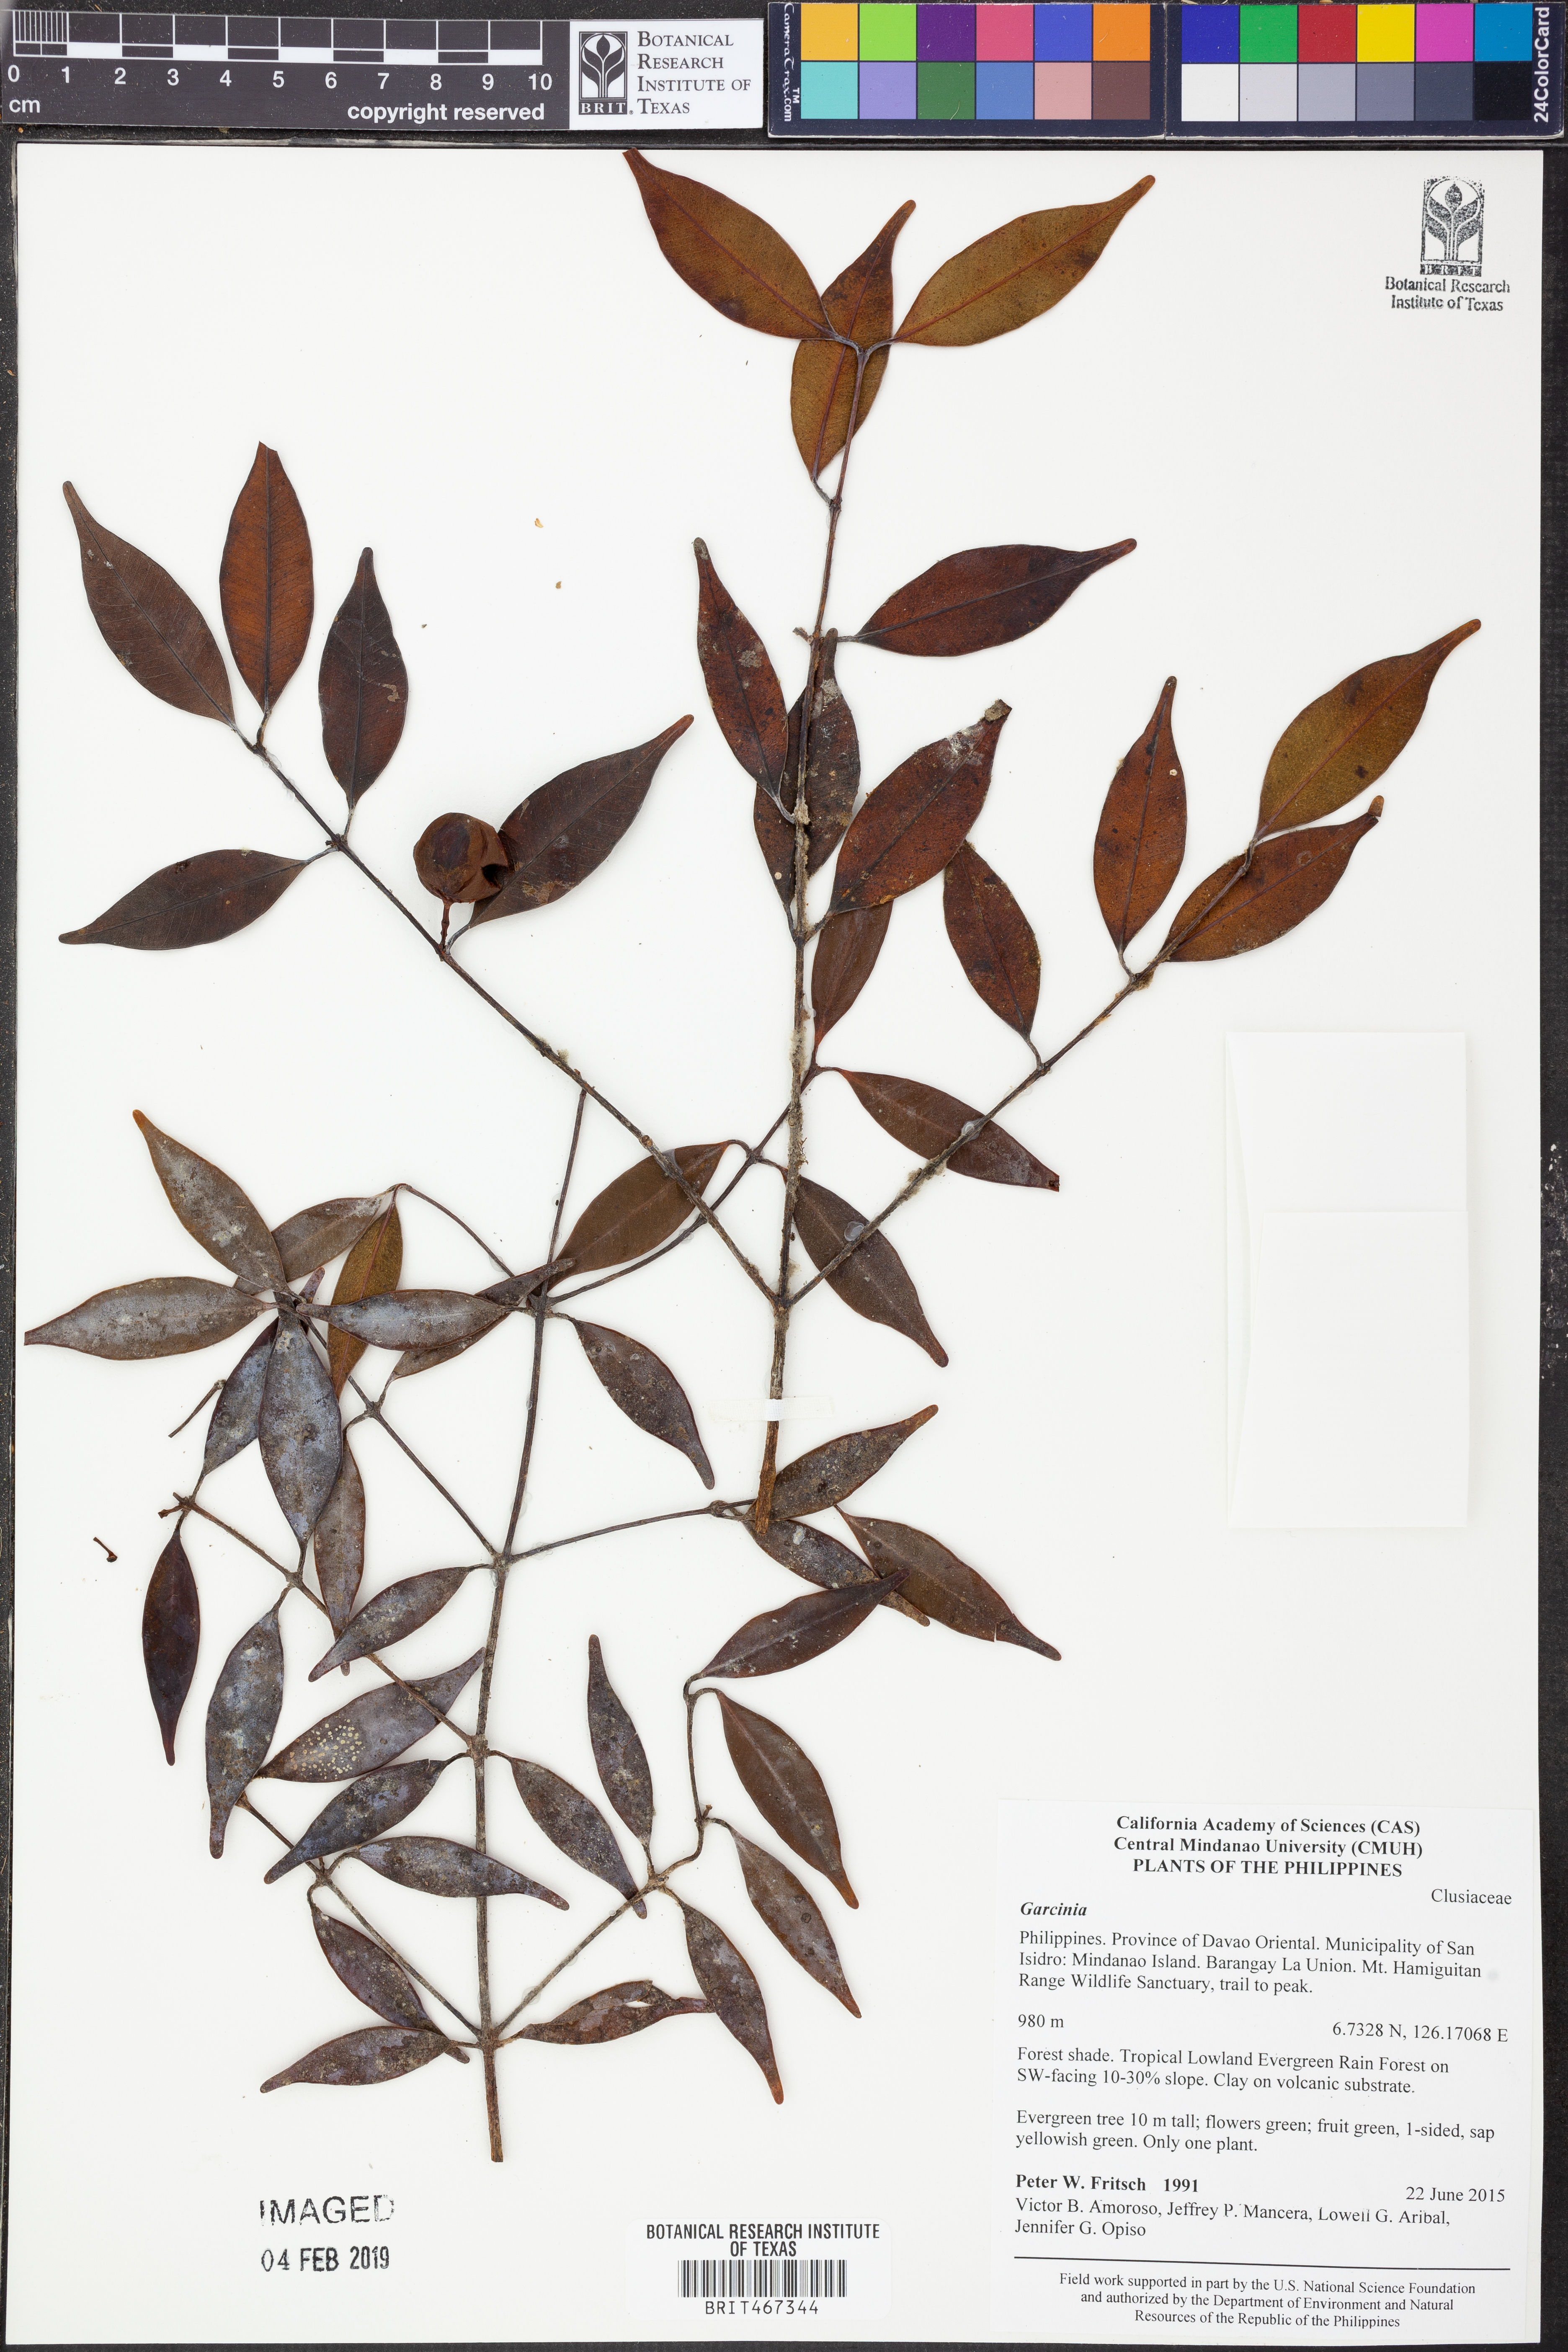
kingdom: Plantae
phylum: Tracheophyta
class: Magnoliopsida
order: Malpighiales
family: Clusiaceae
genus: Garcinia
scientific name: Garcinia
